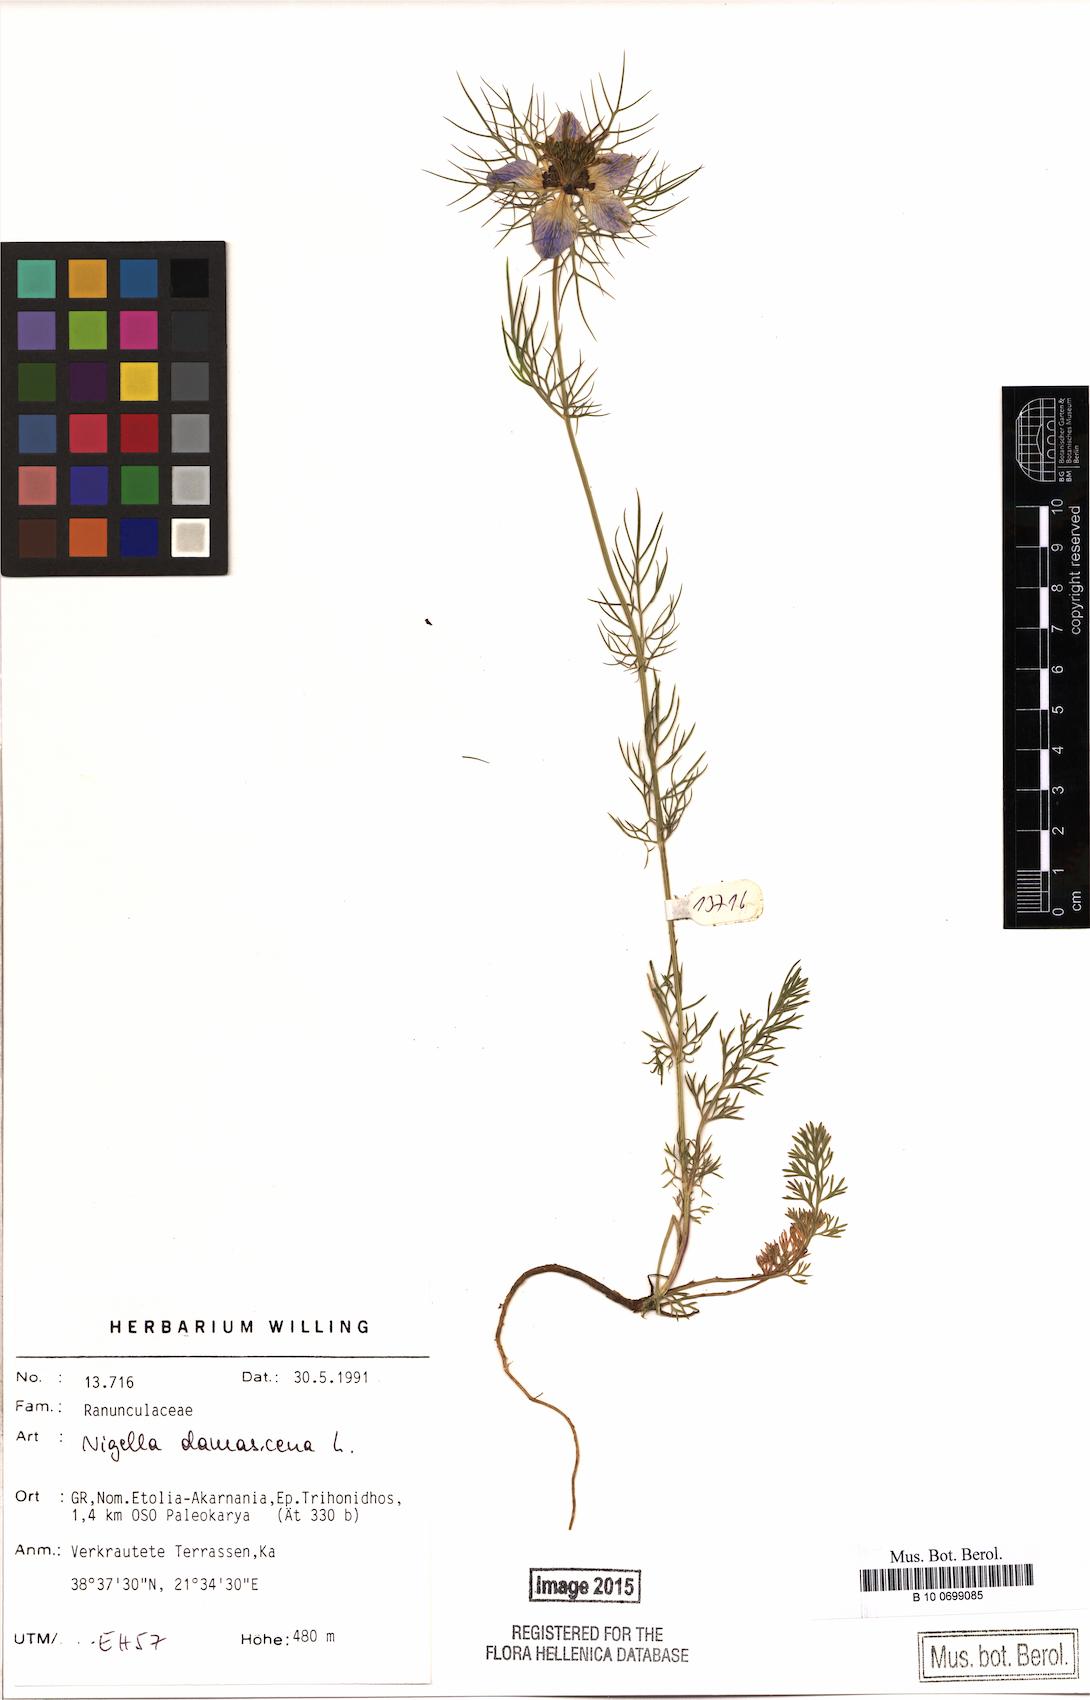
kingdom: Plantae
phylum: Tracheophyta
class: Magnoliopsida
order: Ranunculales
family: Ranunculaceae
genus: Nigella
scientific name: Nigella damascena
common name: Love-in-a-mist
